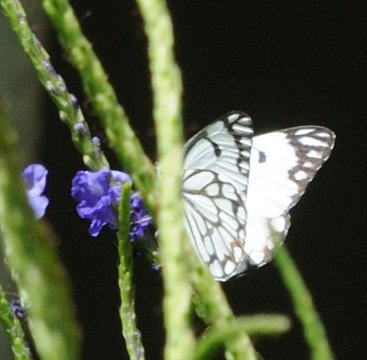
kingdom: Animalia
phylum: Arthropoda
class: Insecta
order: Lepidoptera
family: Pieridae
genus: Belenois
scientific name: Belenois aurota
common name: Pioneer White
